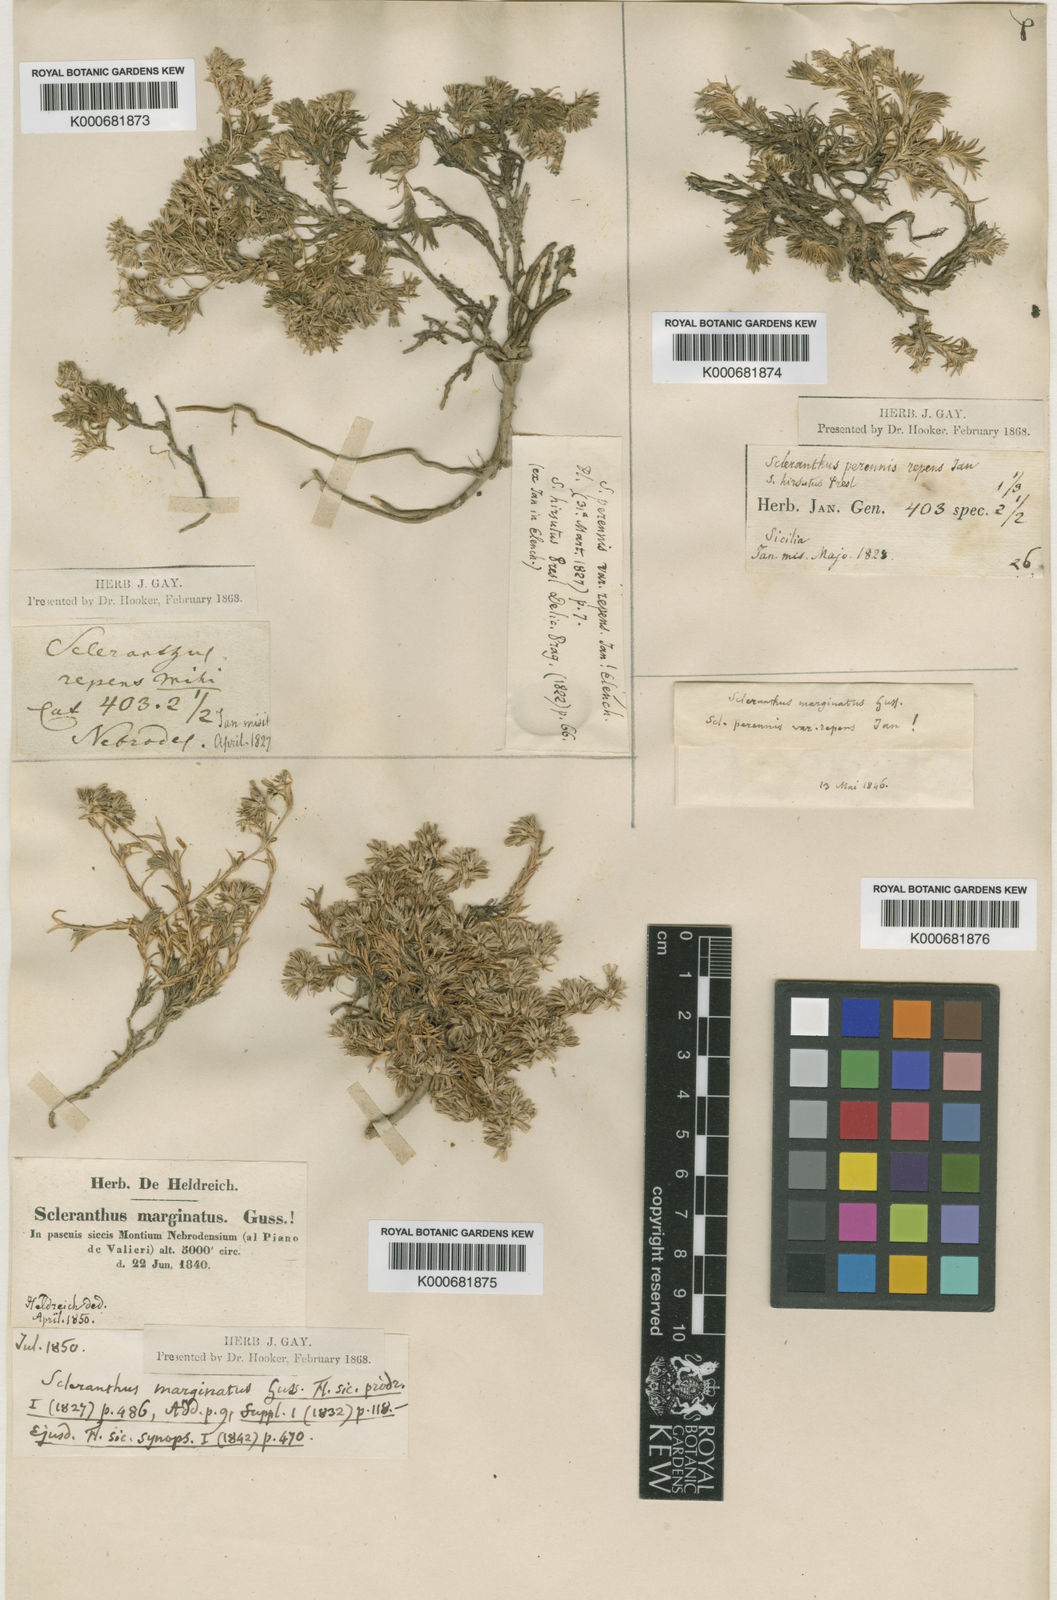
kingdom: Plantae
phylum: Tracheophyta
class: Magnoliopsida
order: Caryophyllales
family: Caryophyllaceae
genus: Scleranthus
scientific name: Scleranthus perennis
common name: Perennial knawel
